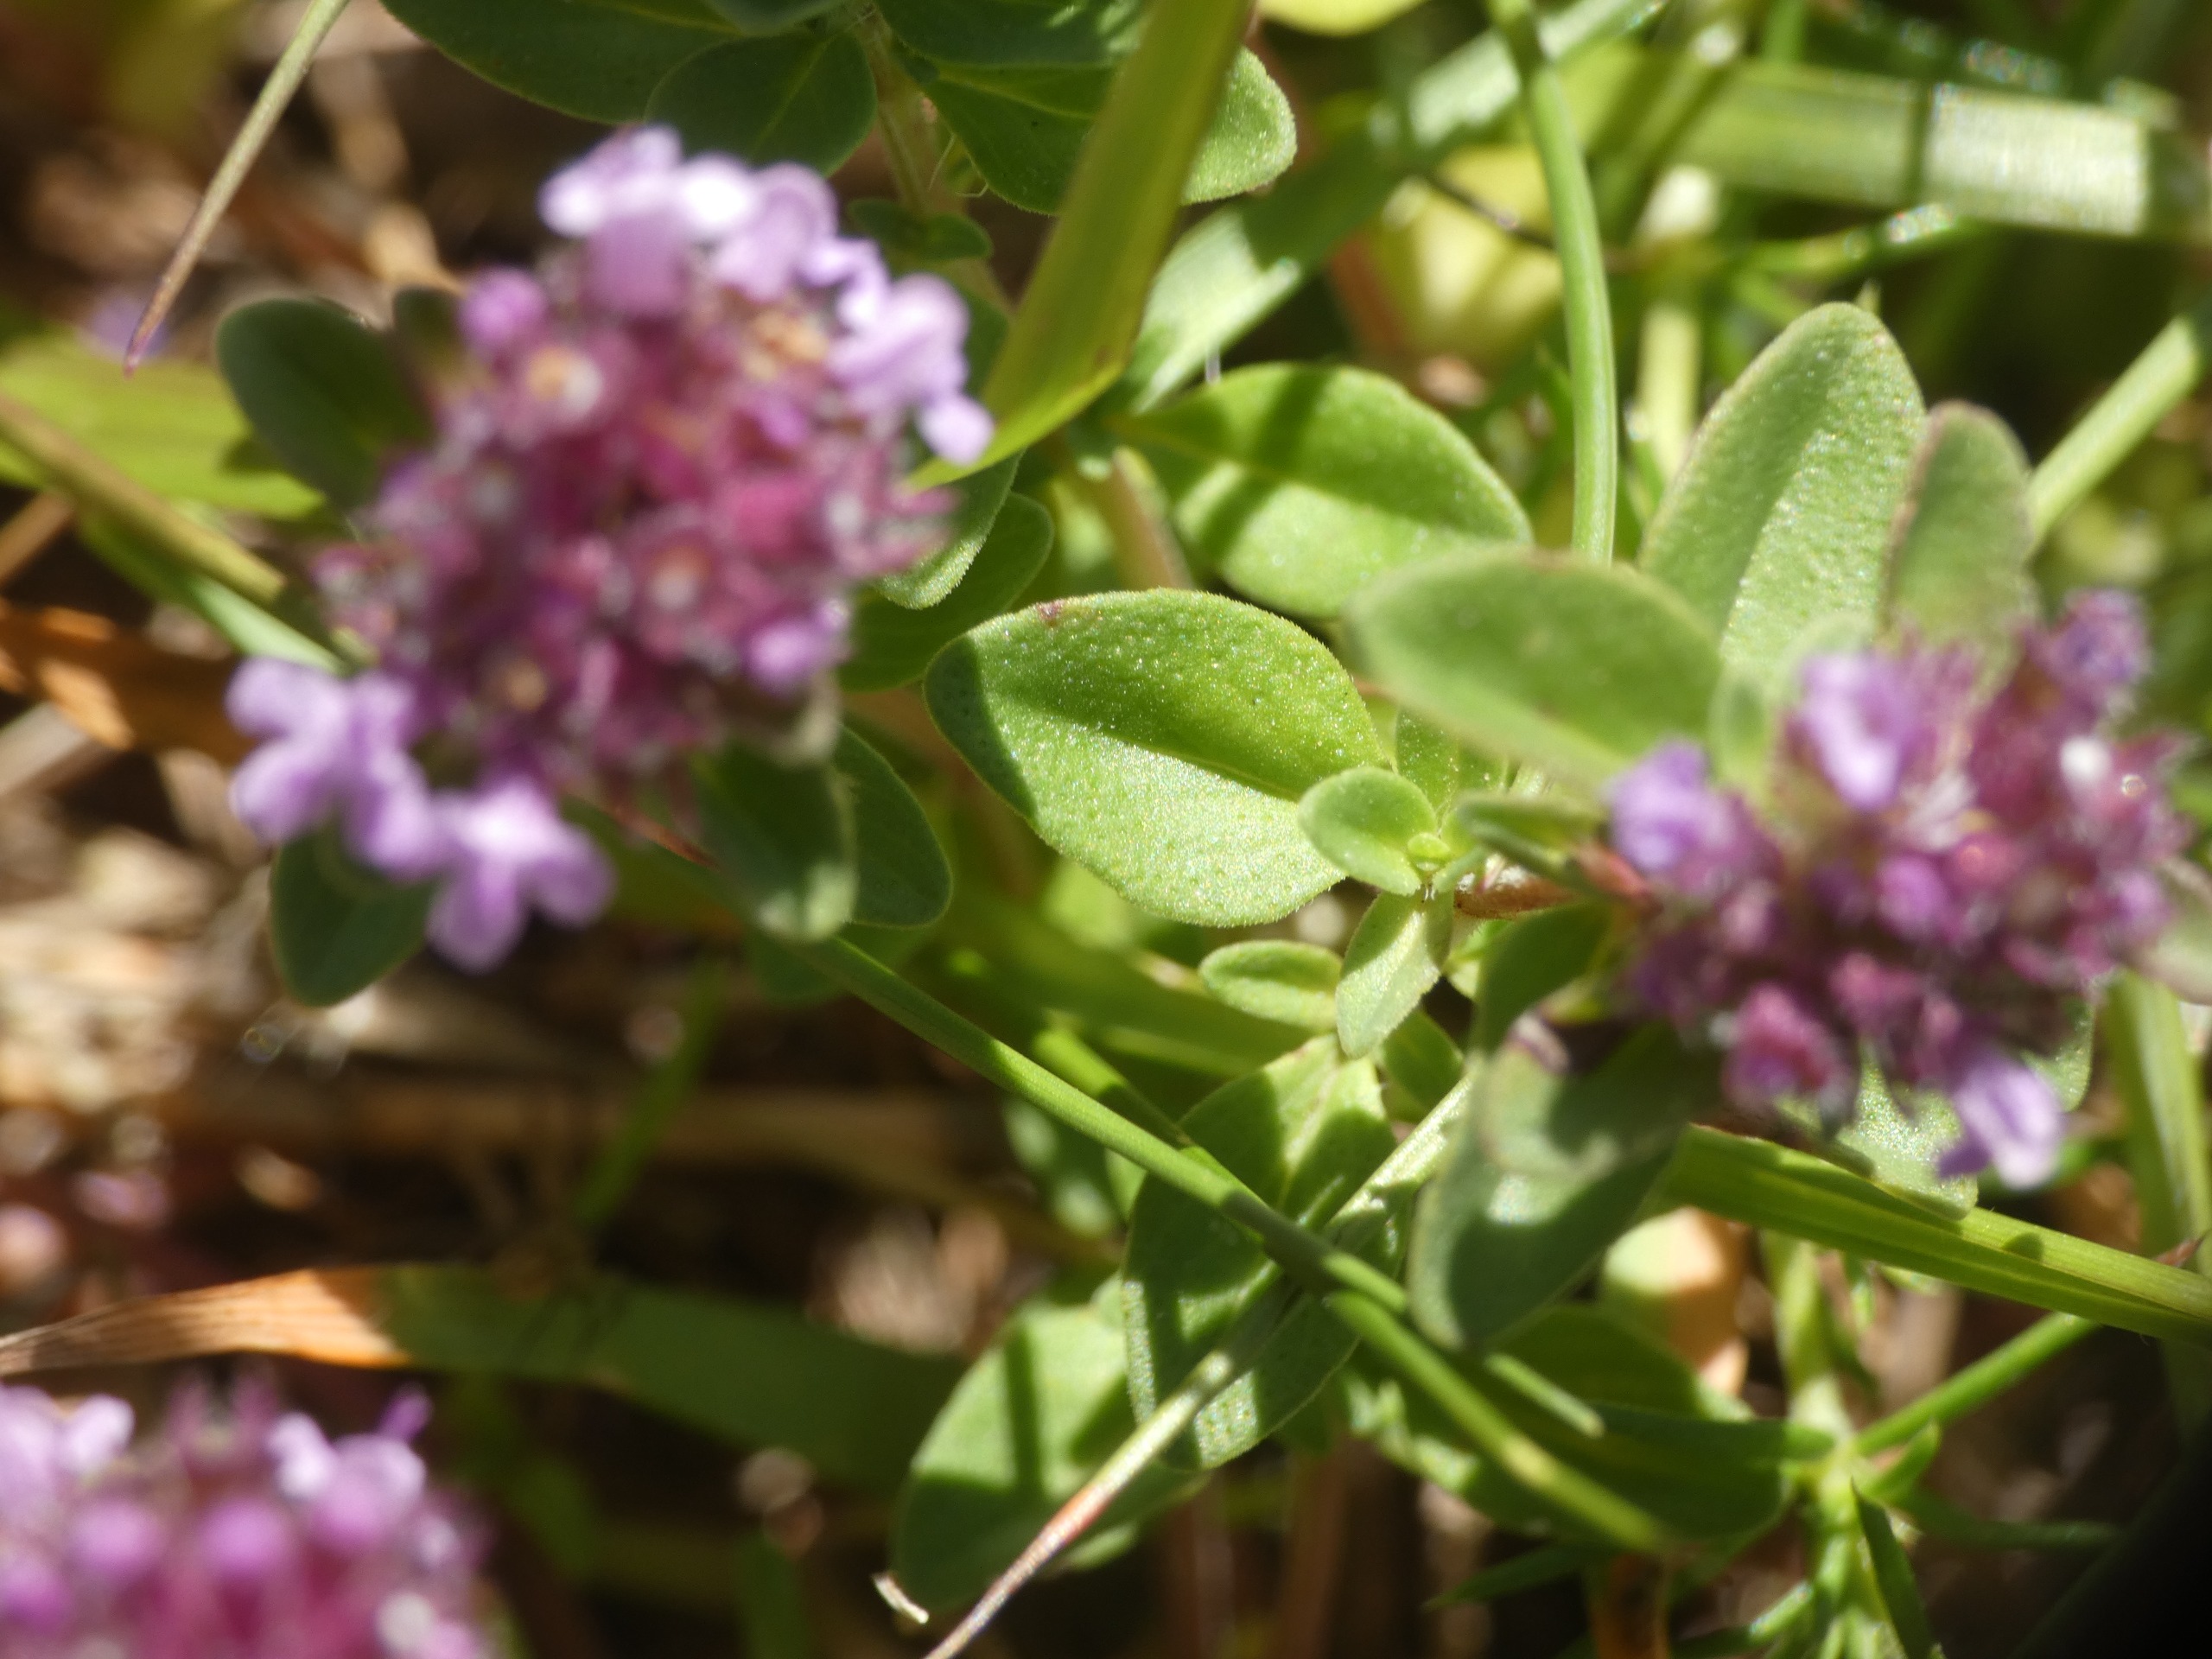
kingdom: Plantae
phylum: Tracheophyta
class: Magnoliopsida
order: Lamiales
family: Lamiaceae
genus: Thymus
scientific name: Thymus pulegioides
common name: Bredbladet timian
